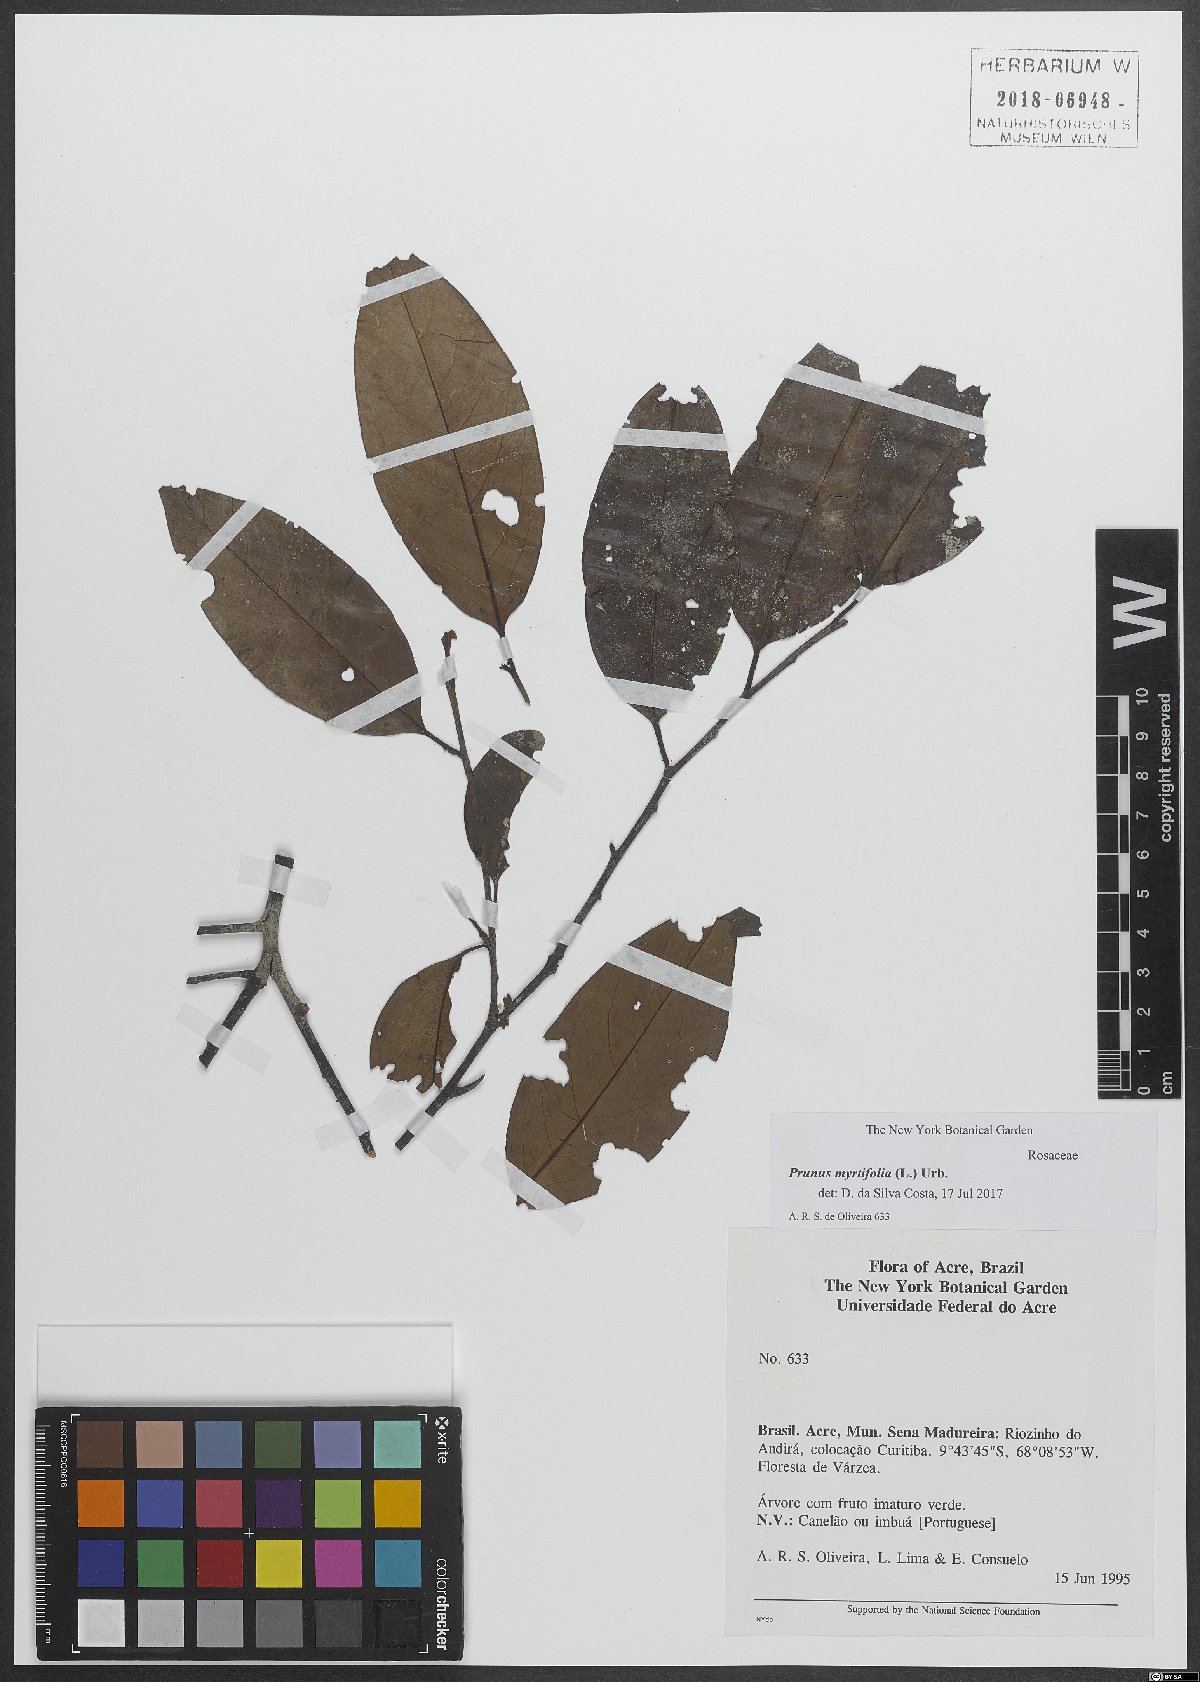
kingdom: Plantae
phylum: Tracheophyta
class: Magnoliopsida
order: Rosales
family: Rosaceae
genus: Prunus
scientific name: Prunus myrtifolia
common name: West indies cherry
